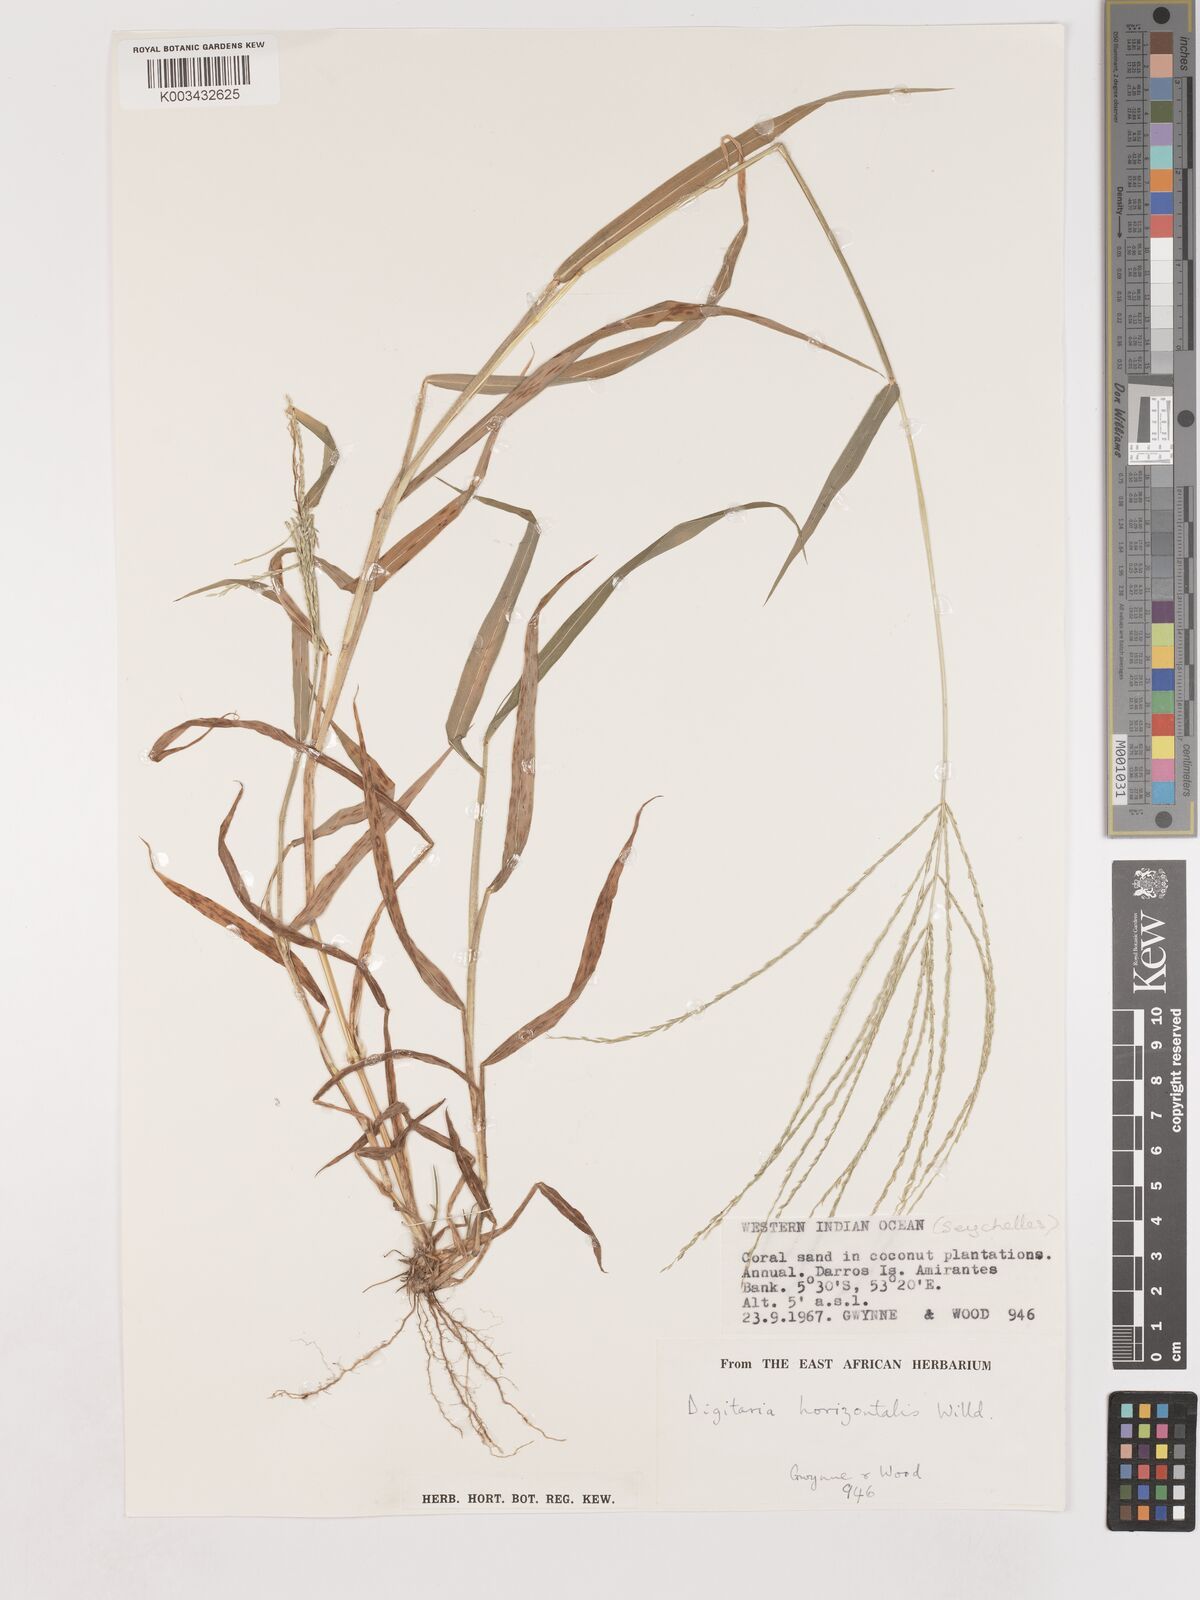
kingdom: Plantae
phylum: Tracheophyta
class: Liliopsida
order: Poales
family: Poaceae
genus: Digitaria
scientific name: Digitaria horizontalis
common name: Jamaican crabgrass
